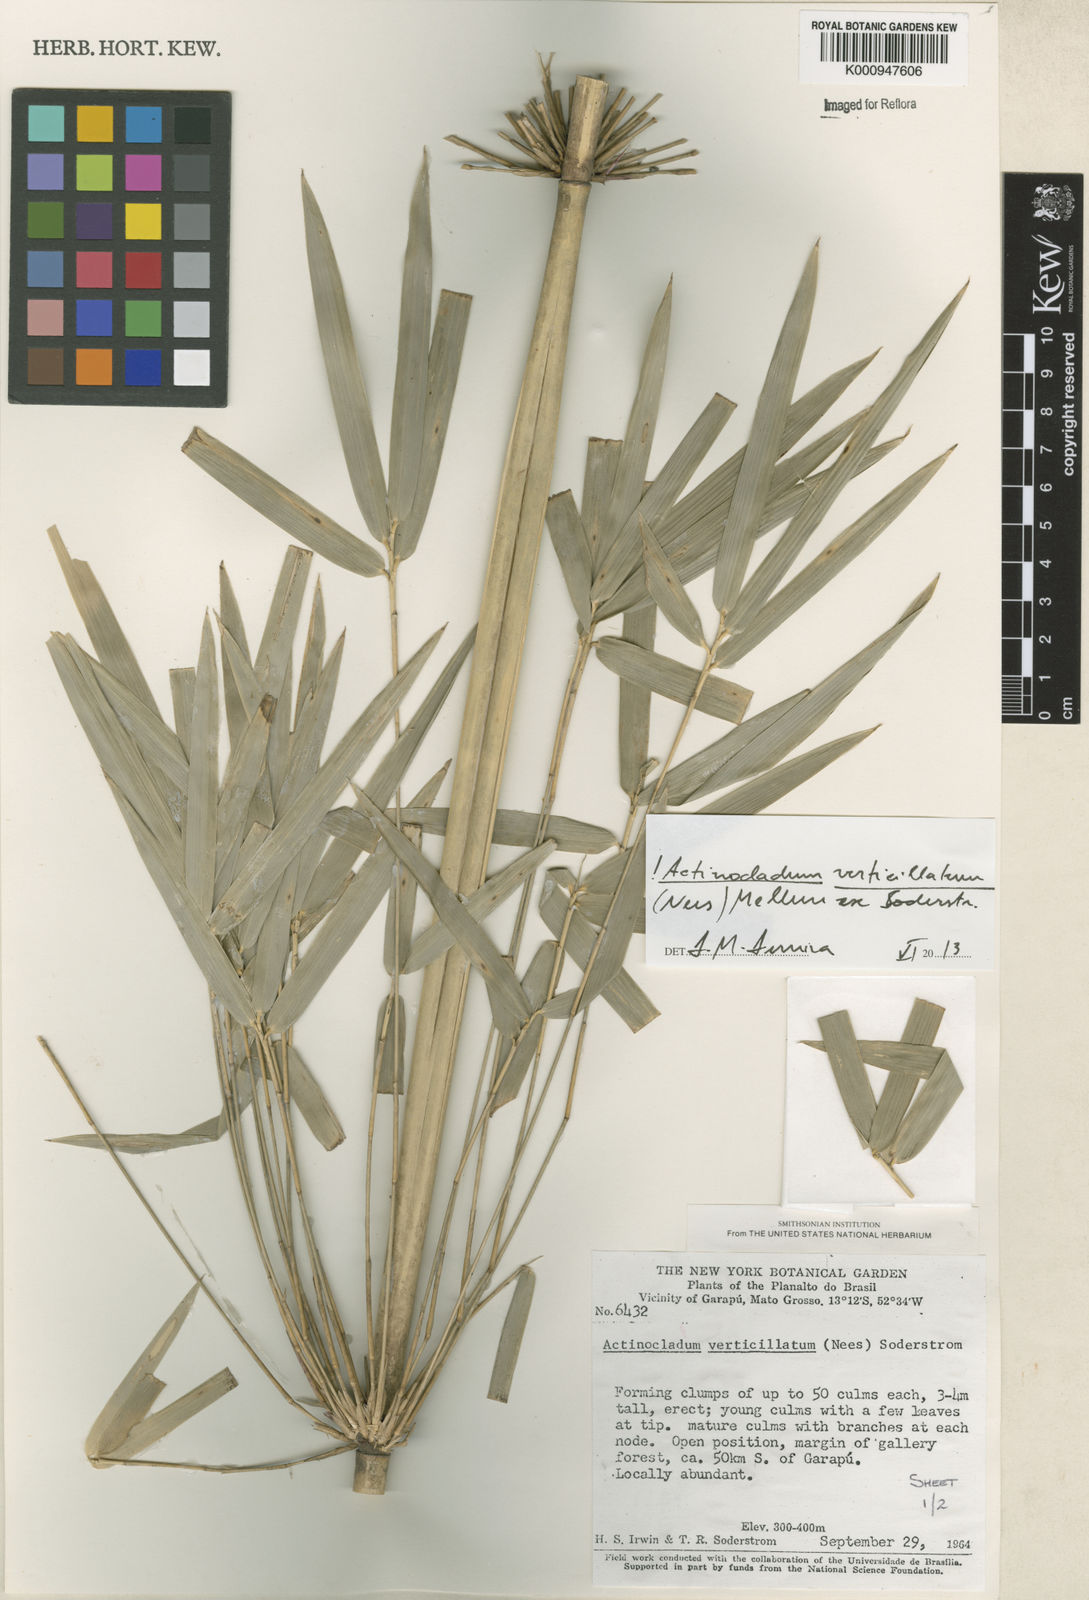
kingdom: Plantae
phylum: Tracheophyta
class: Liliopsida
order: Poales
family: Poaceae
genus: Actinocladum
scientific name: Actinocladum verticillatum
